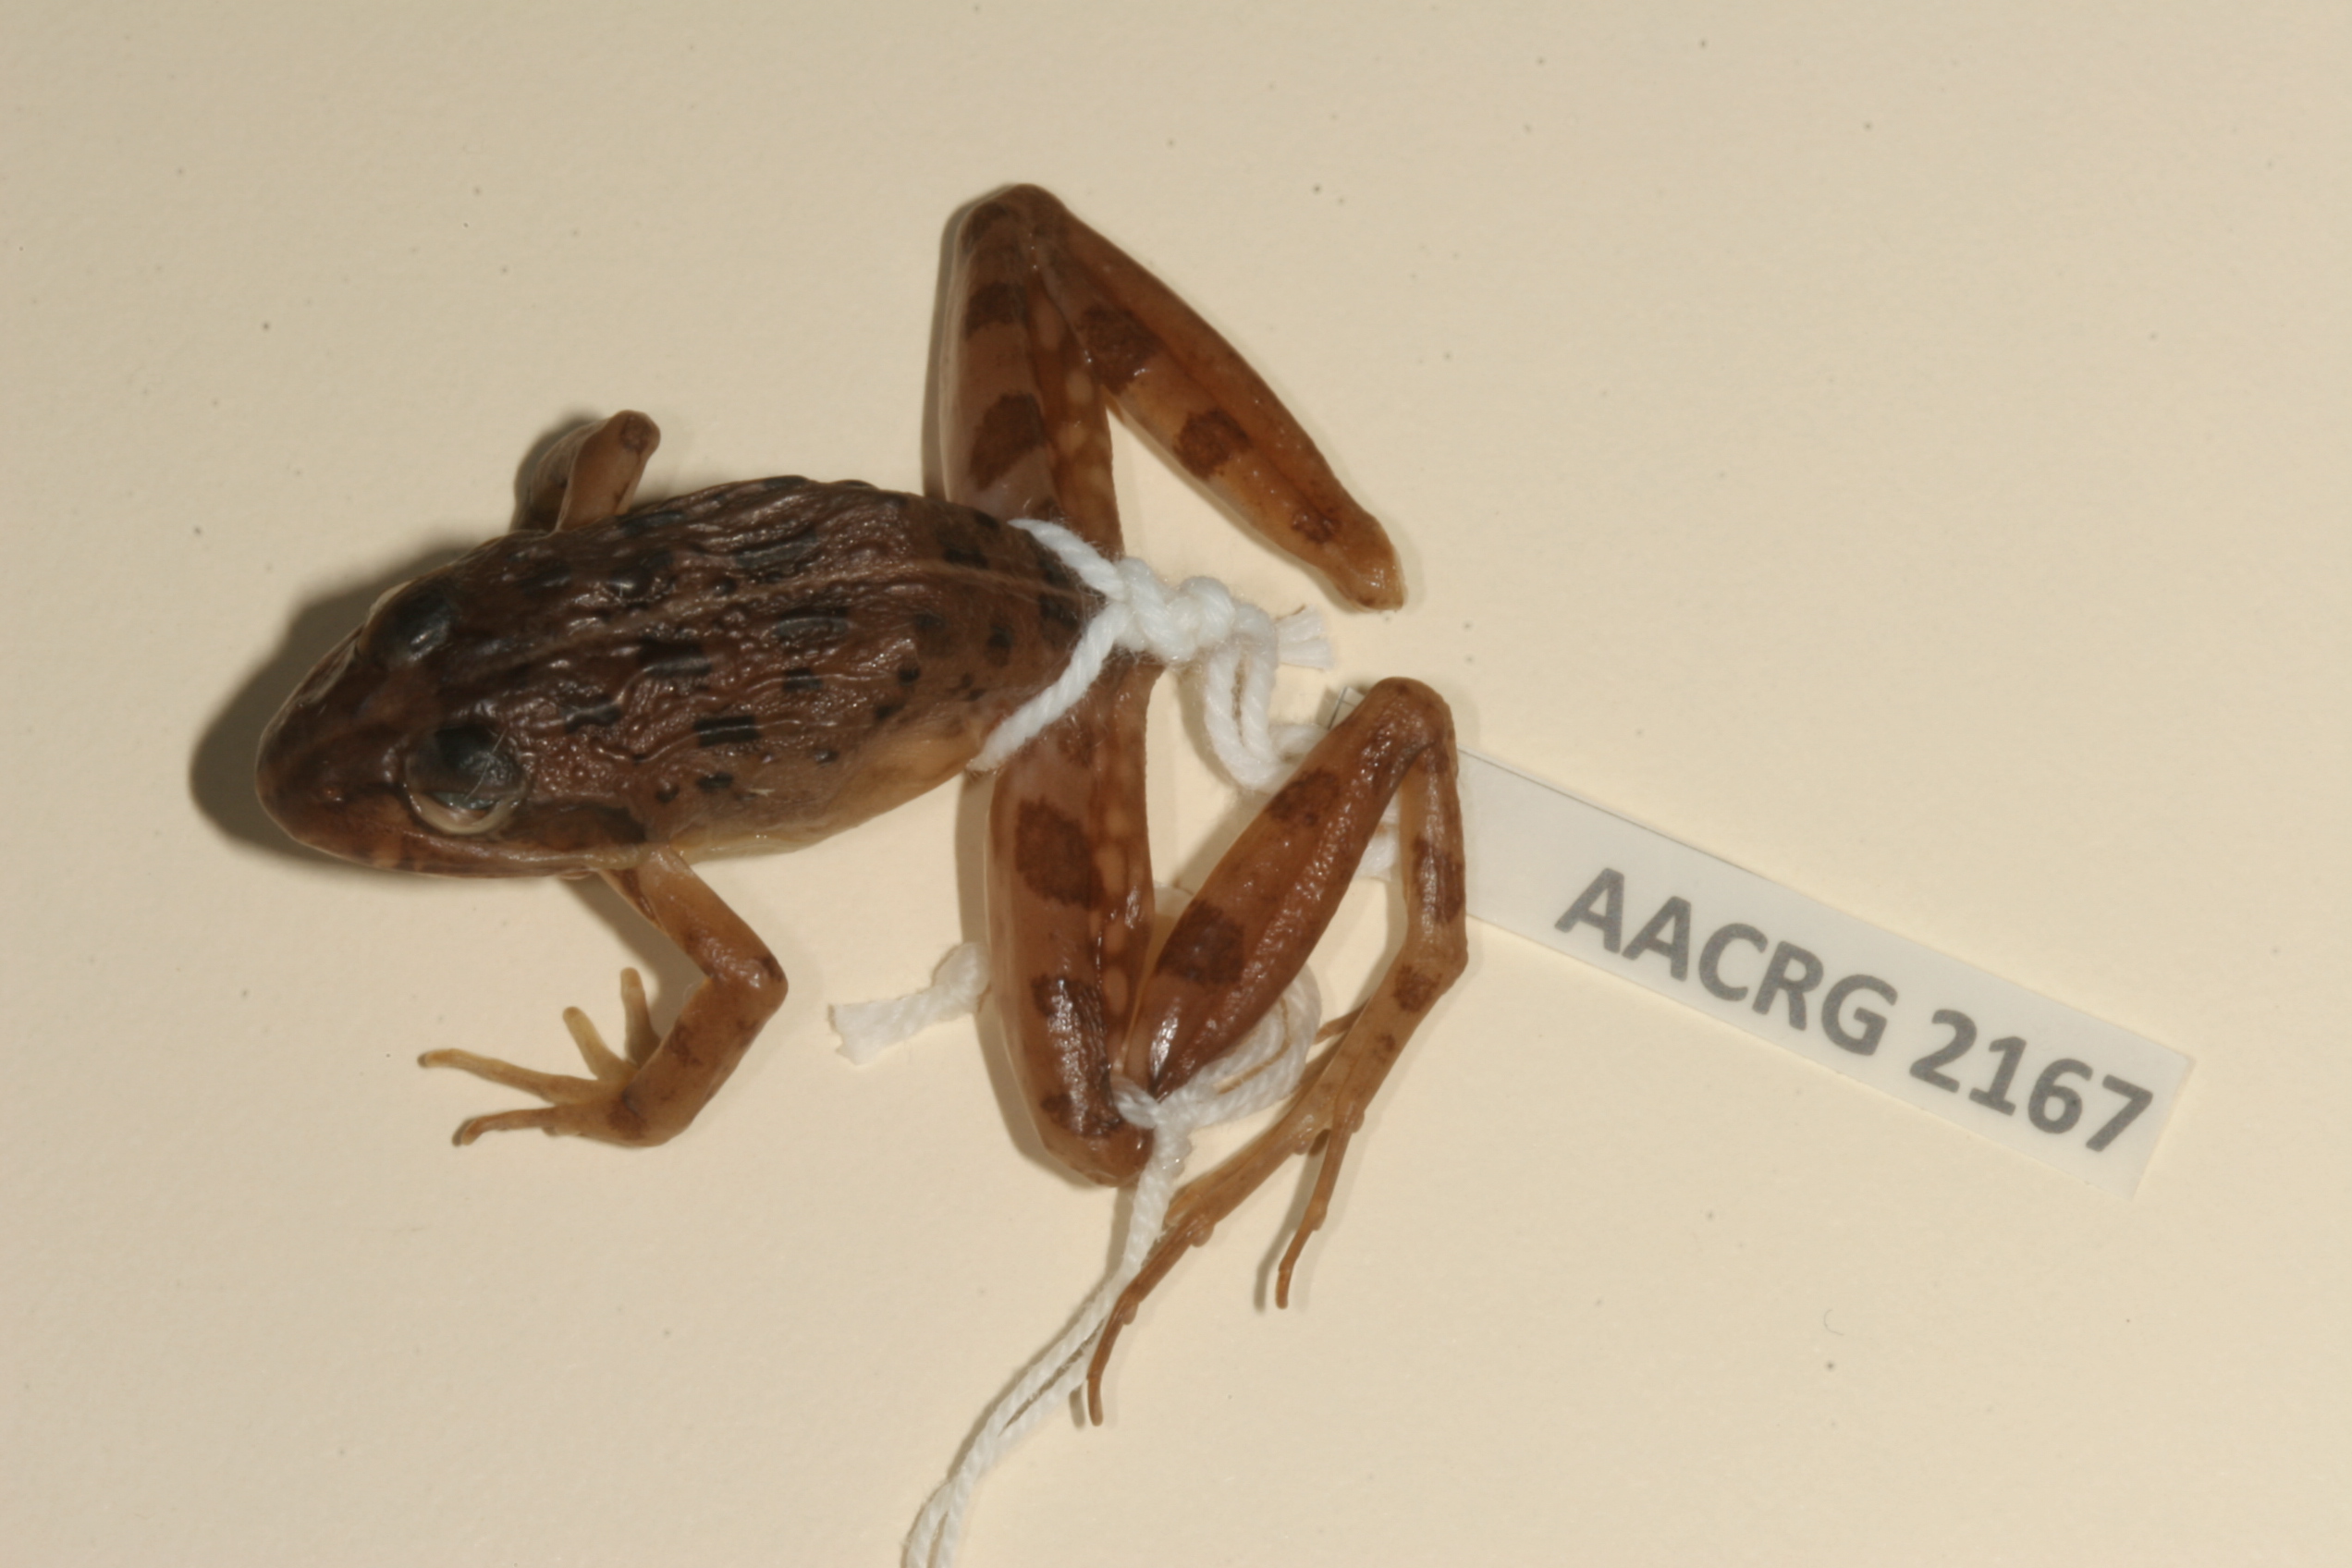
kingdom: Animalia
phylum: Chordata
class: Amphibia
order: Anura
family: Pyxicephalidae
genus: Strongylopus
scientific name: Strongylopus grayii
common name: Gray's stream frog
